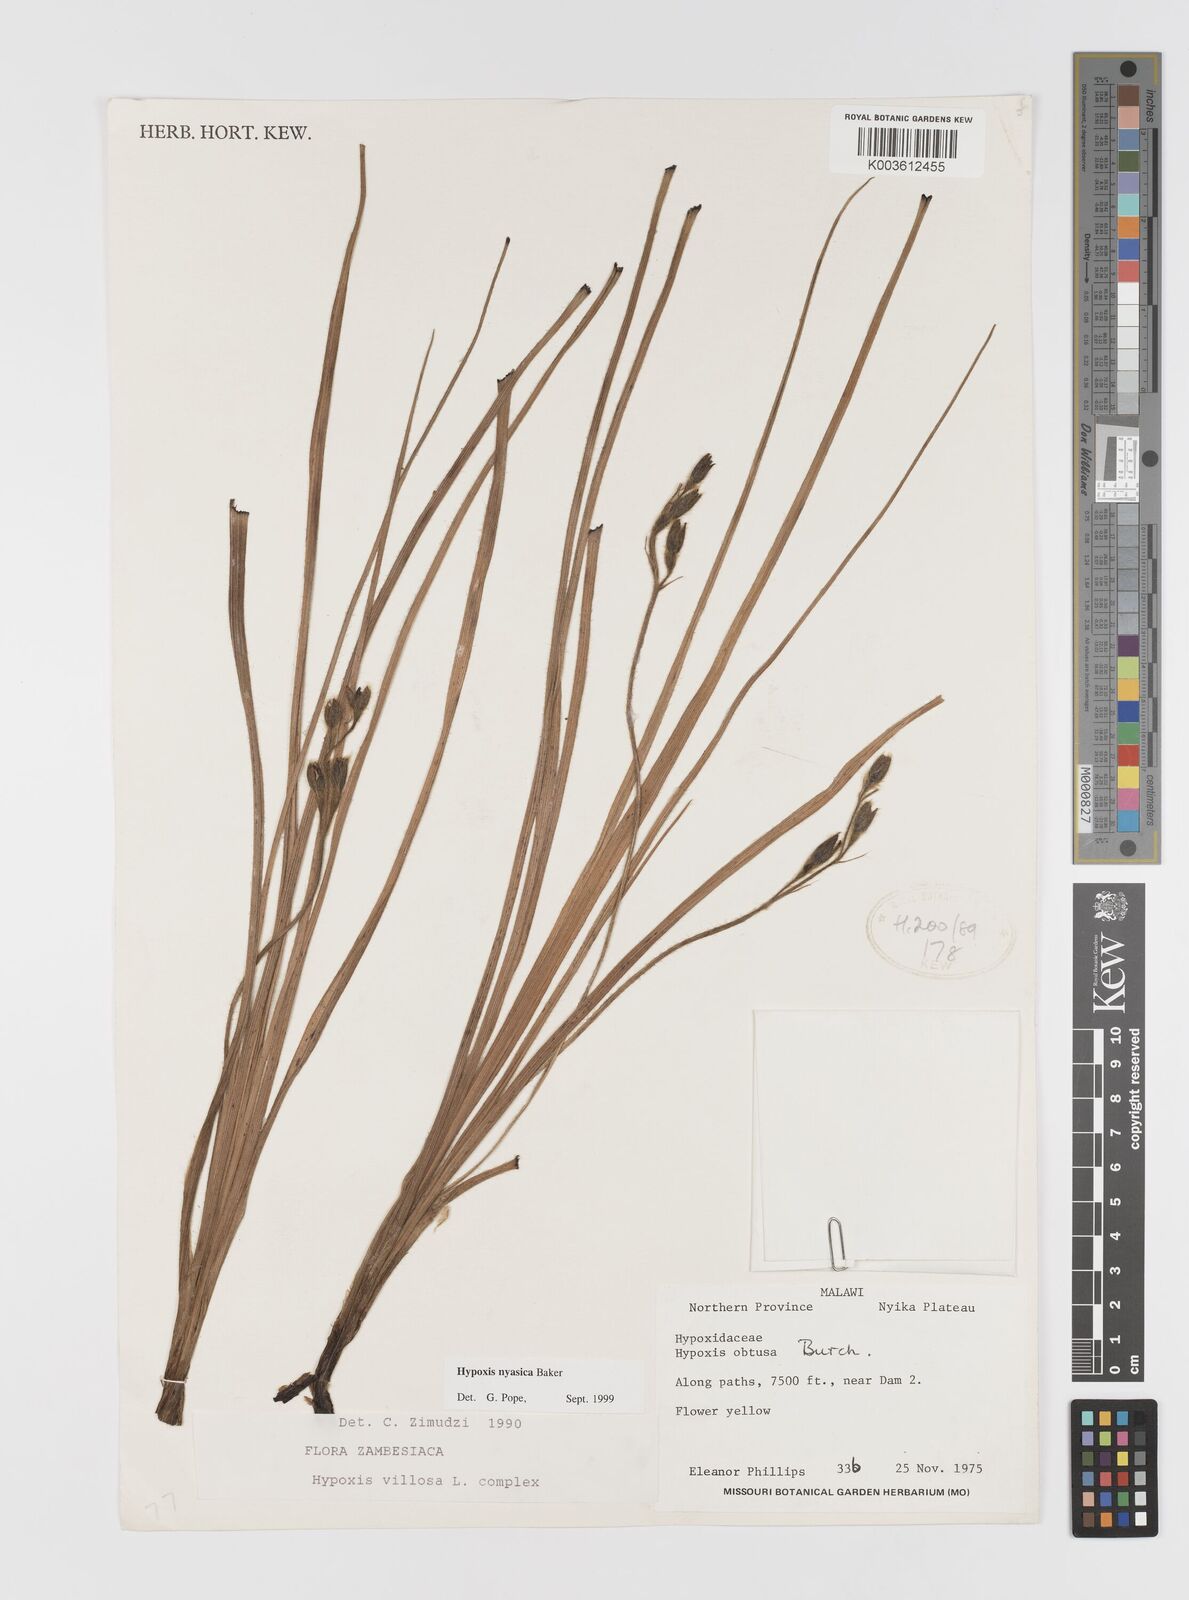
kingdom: Plantae
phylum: Tracheophyta
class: Liliopsida
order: Asparagales
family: Hypoxidaceae
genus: Hypoxis
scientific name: Hypoxis nyasica
